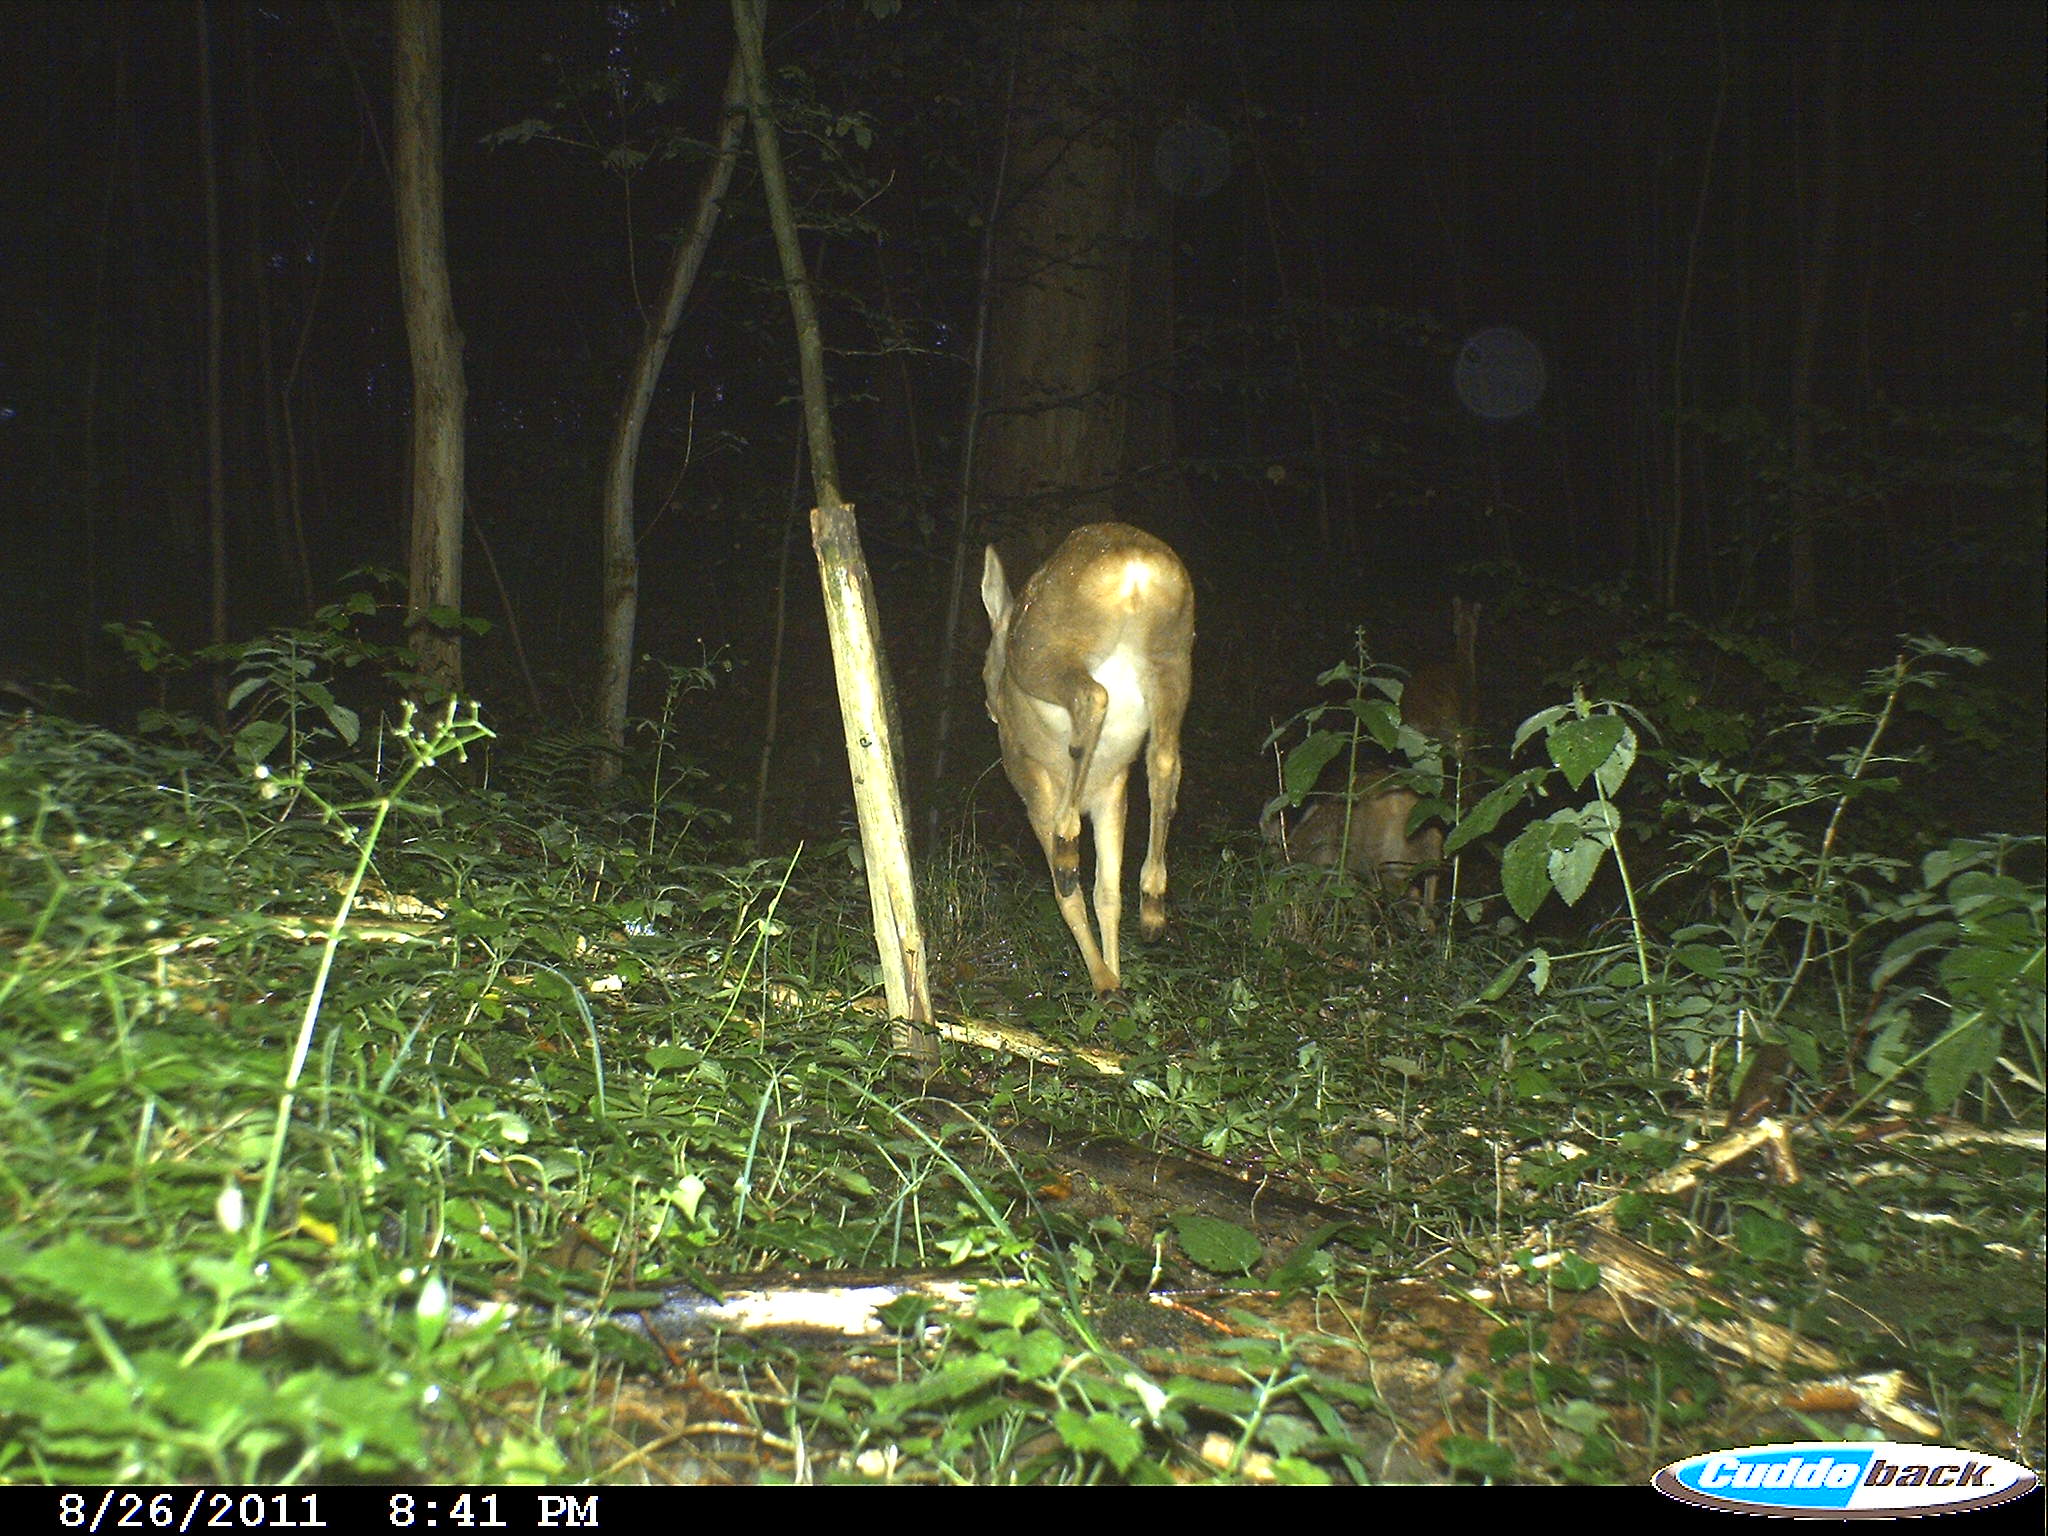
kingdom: Animalia
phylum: Chordata
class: Mammalia
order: Artiodactyla
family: Cervidae
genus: Capreolus
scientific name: Capreolus capreolus
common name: Western roe deer
